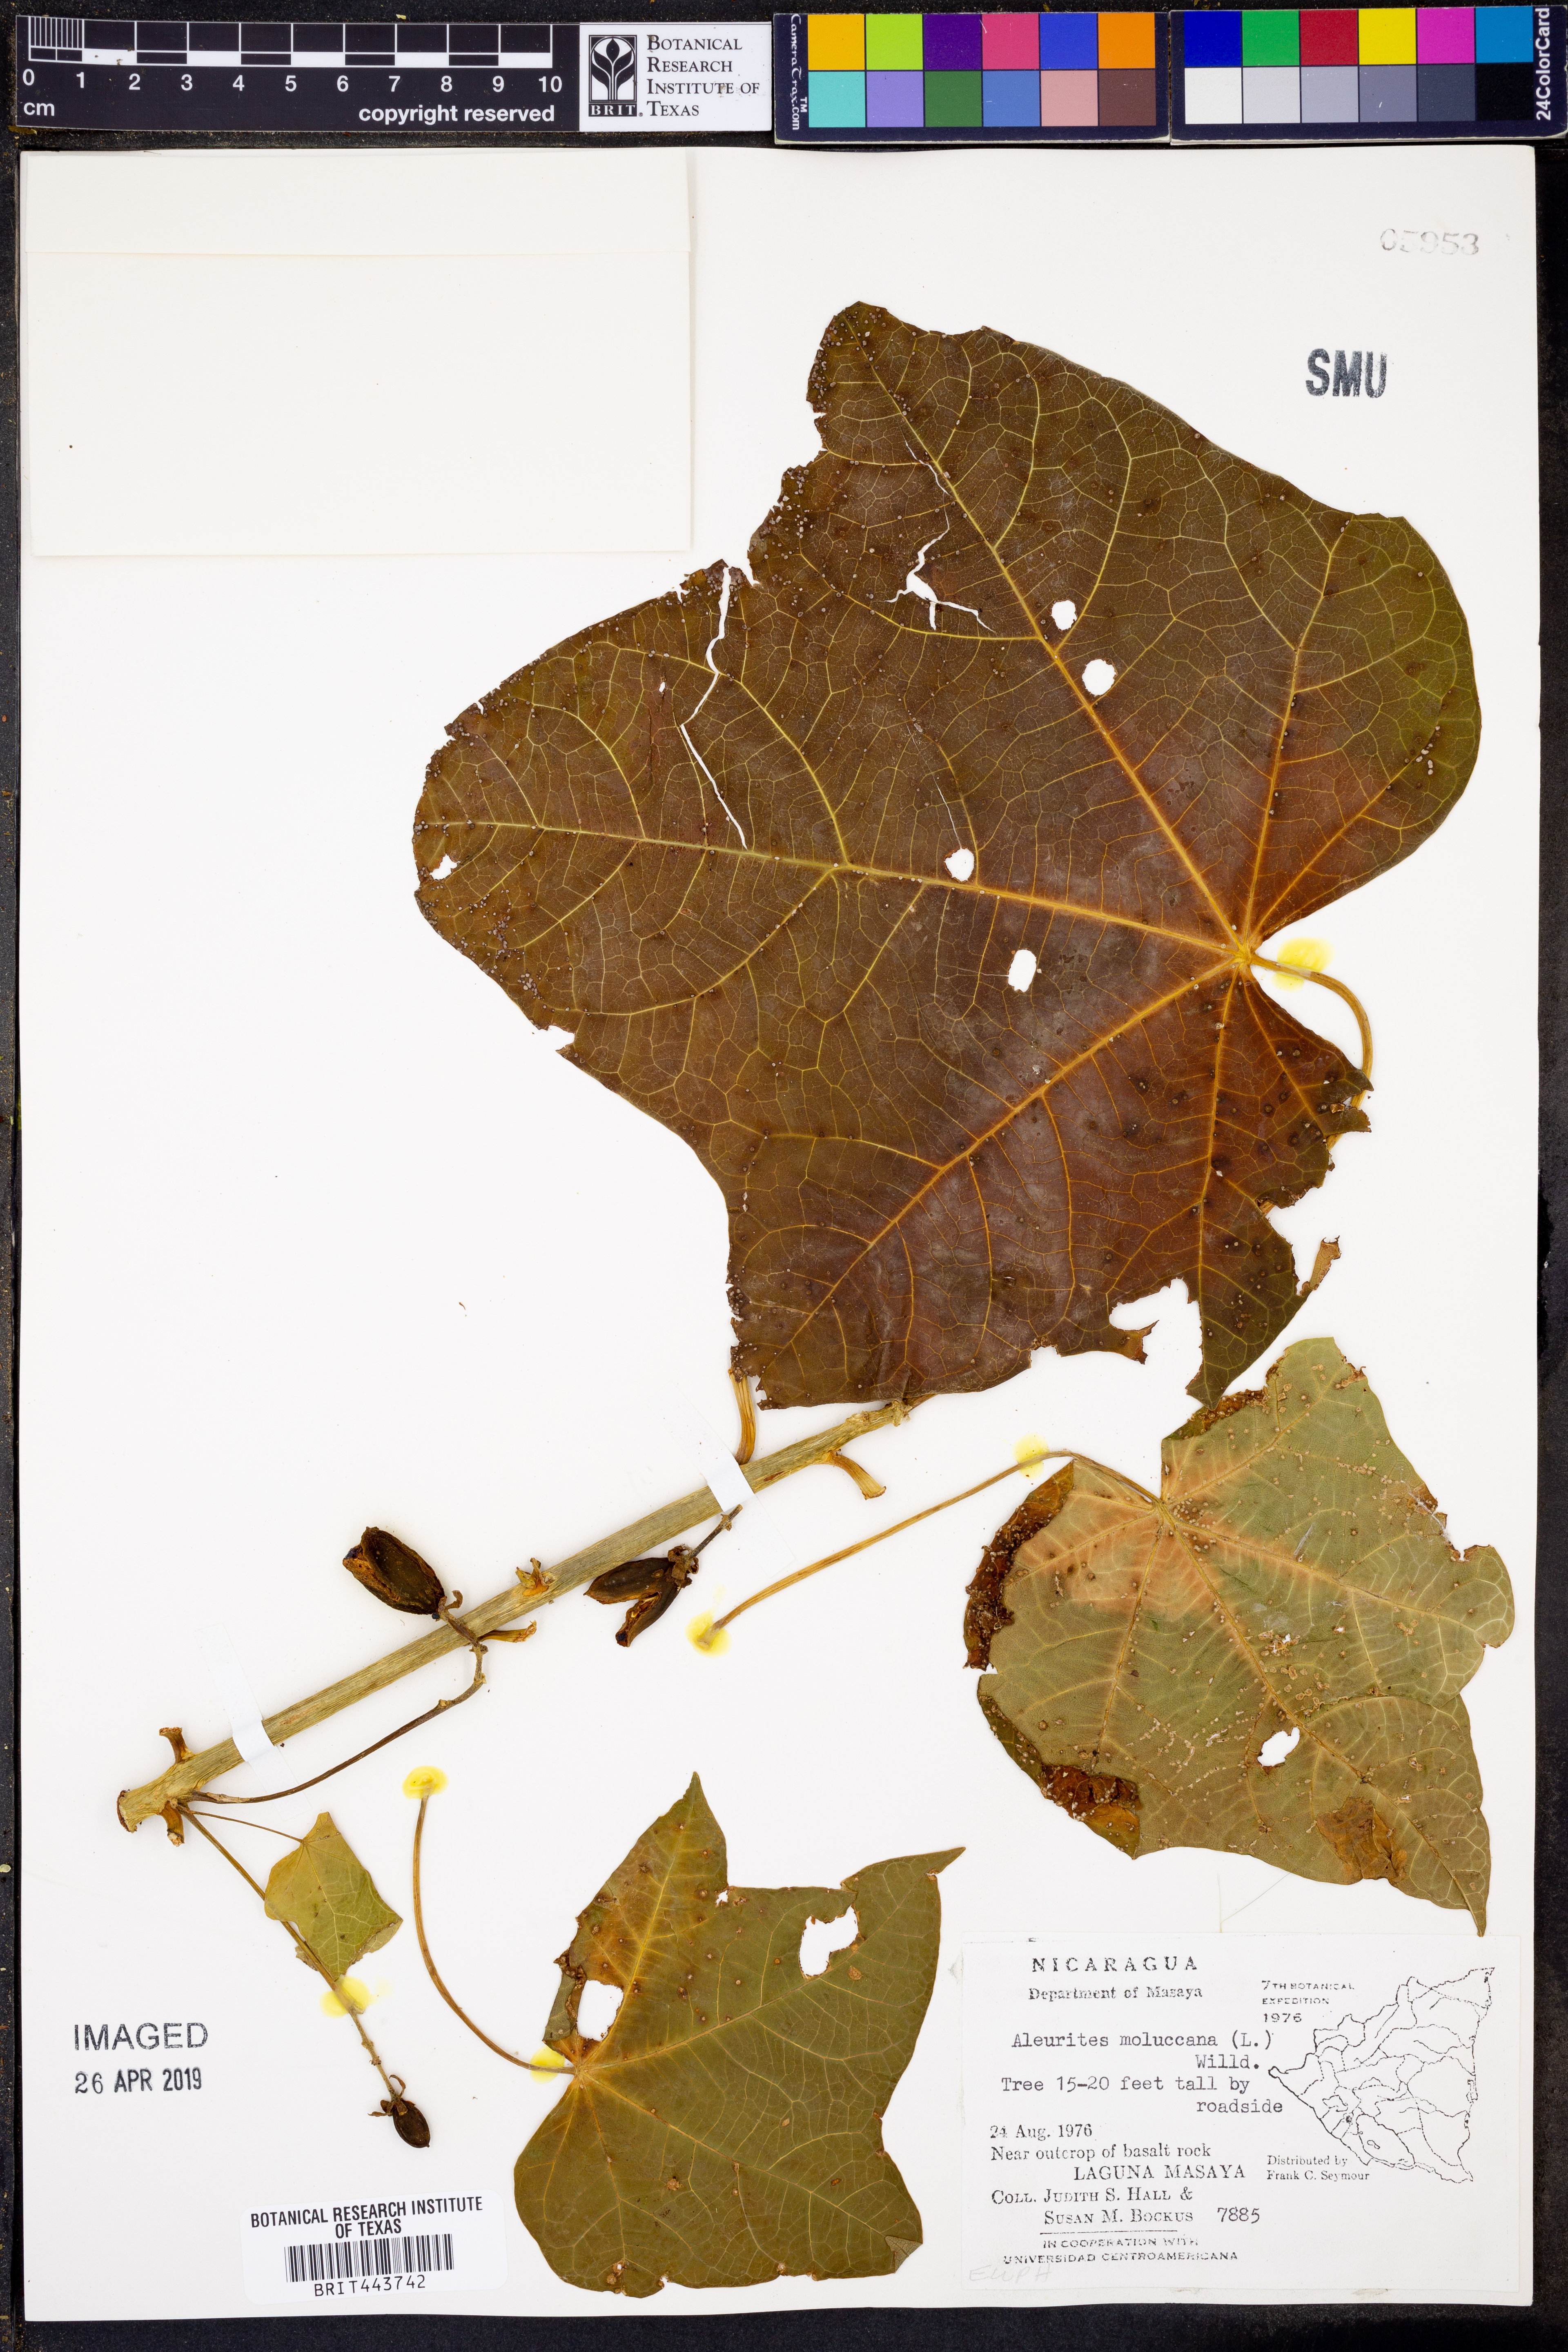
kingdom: Plantae
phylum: Tracheophyta
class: Magnoliopsida
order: Malpighiales
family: Euphorbiaceae
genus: Aleurites
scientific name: Aleurites moluccanus
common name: Candlenut tree
